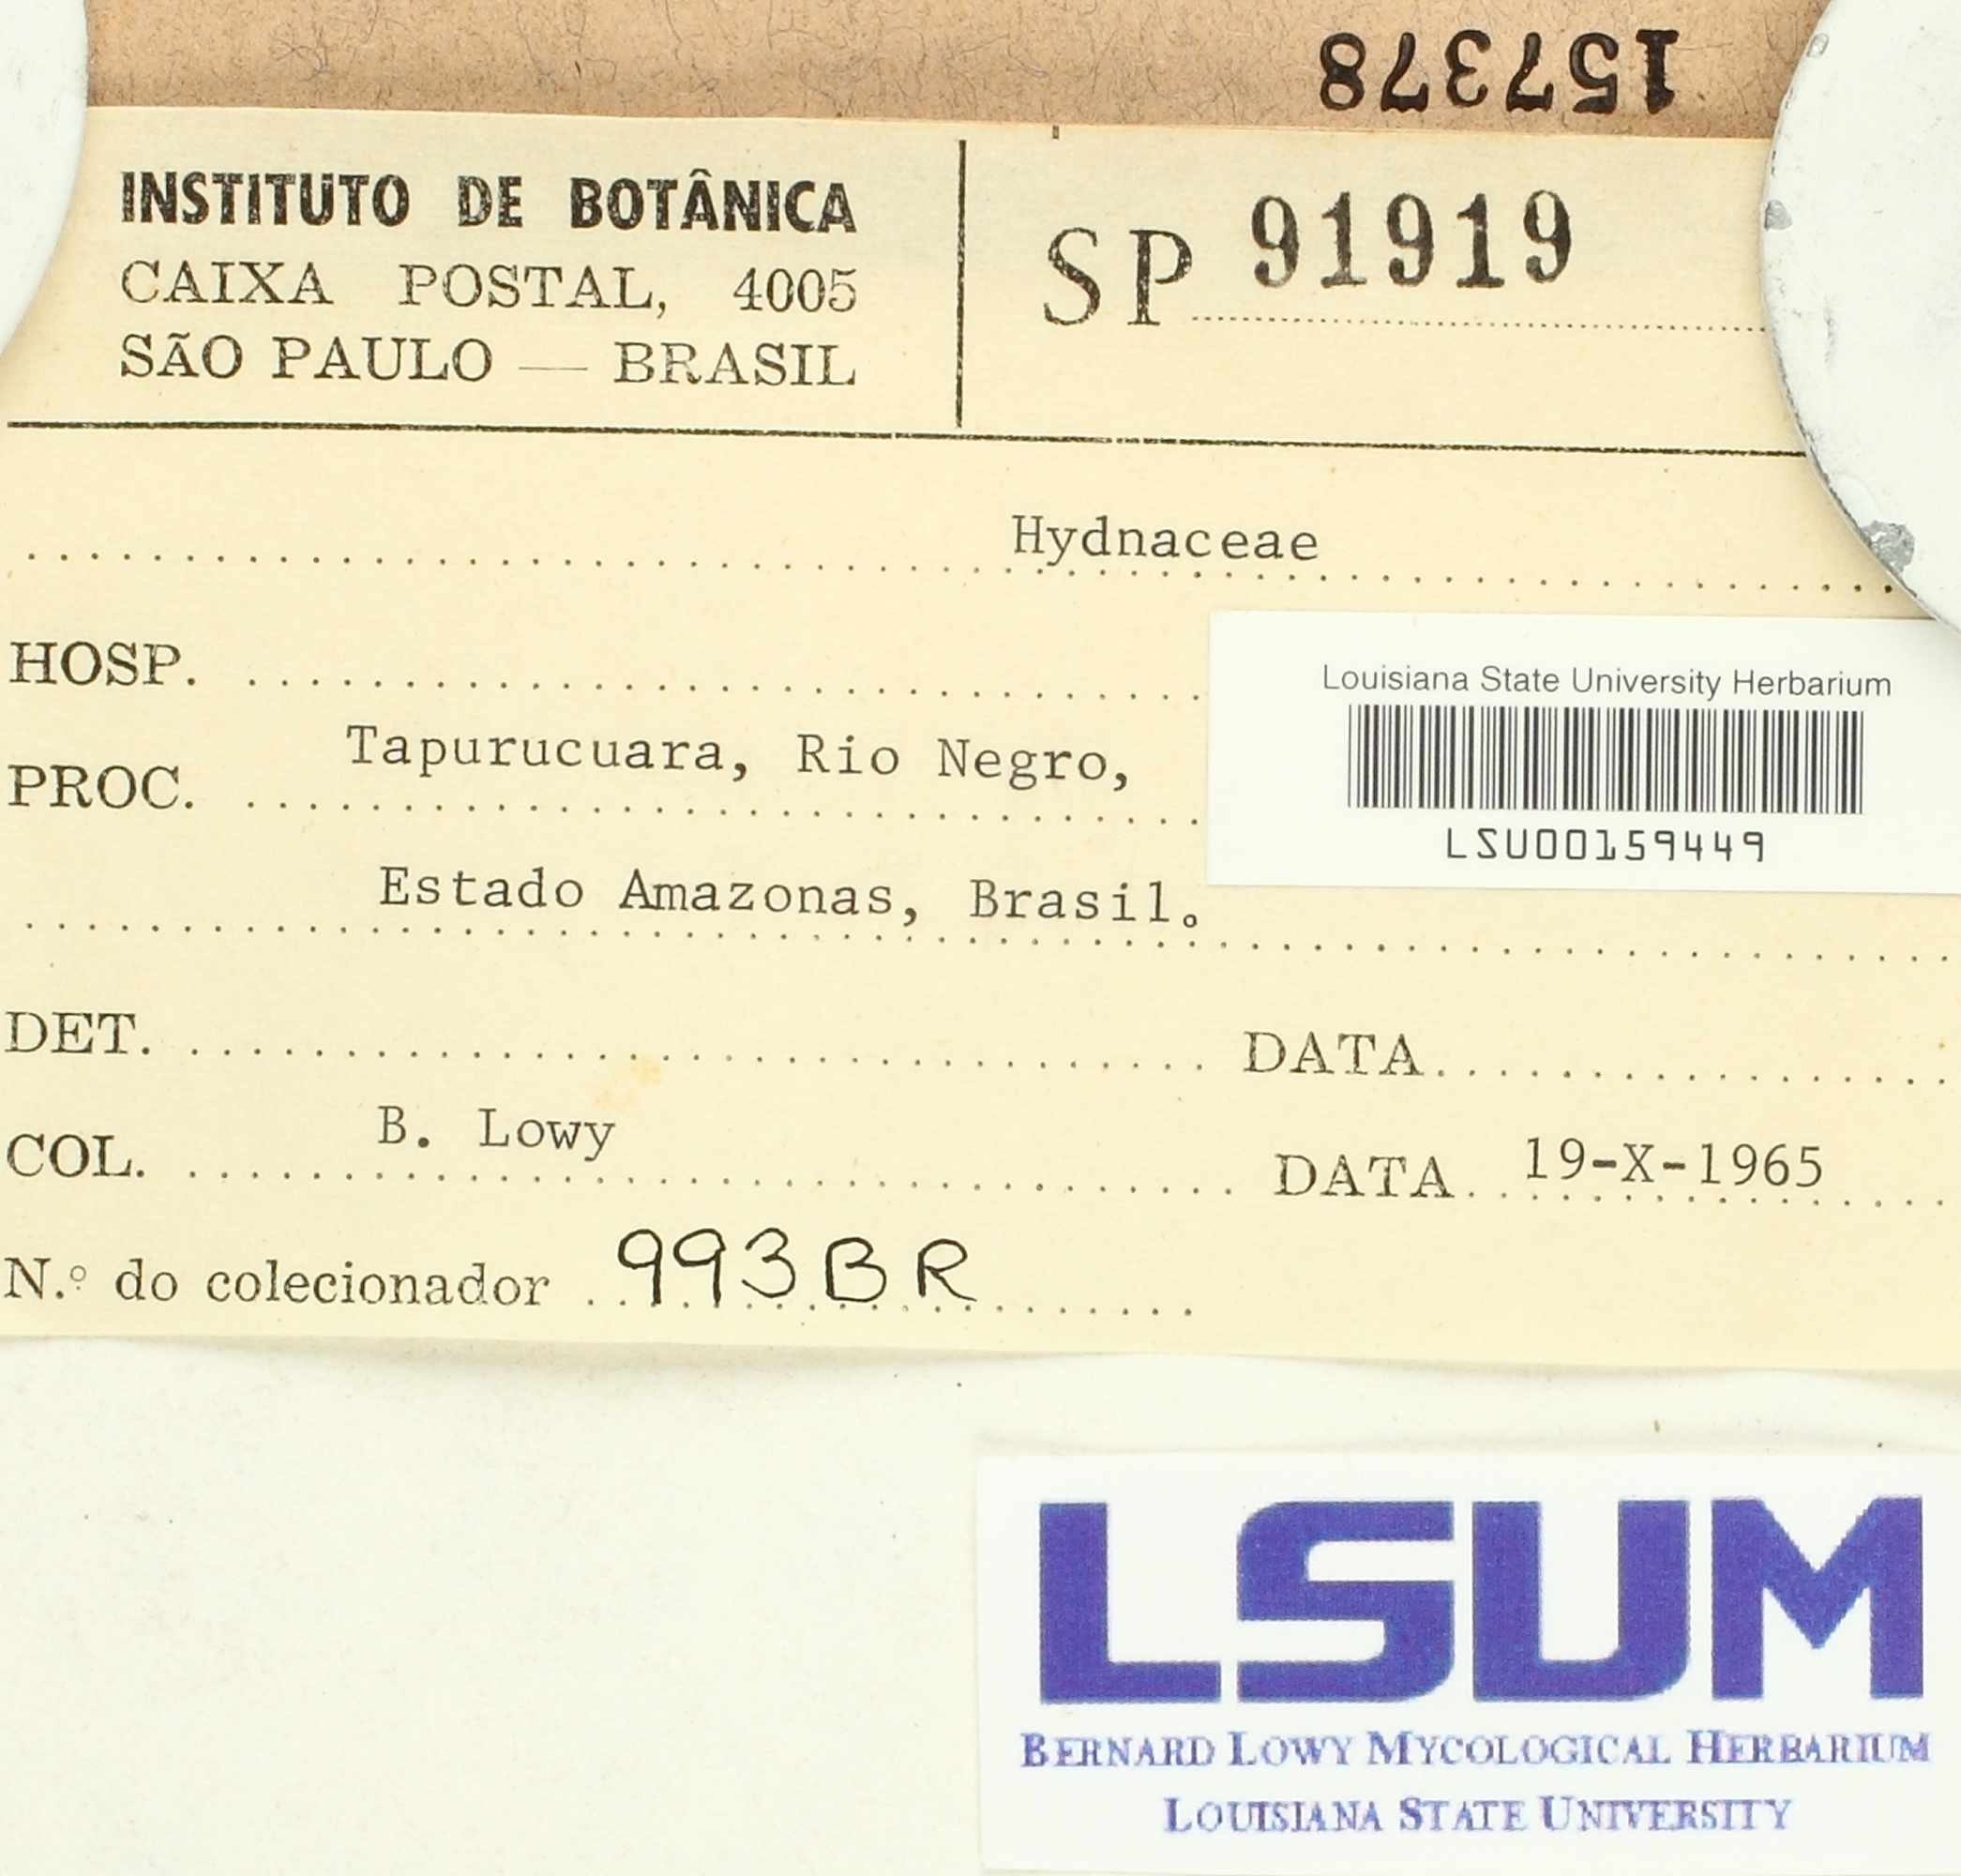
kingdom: Fungi
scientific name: Fungi
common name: Fungi
